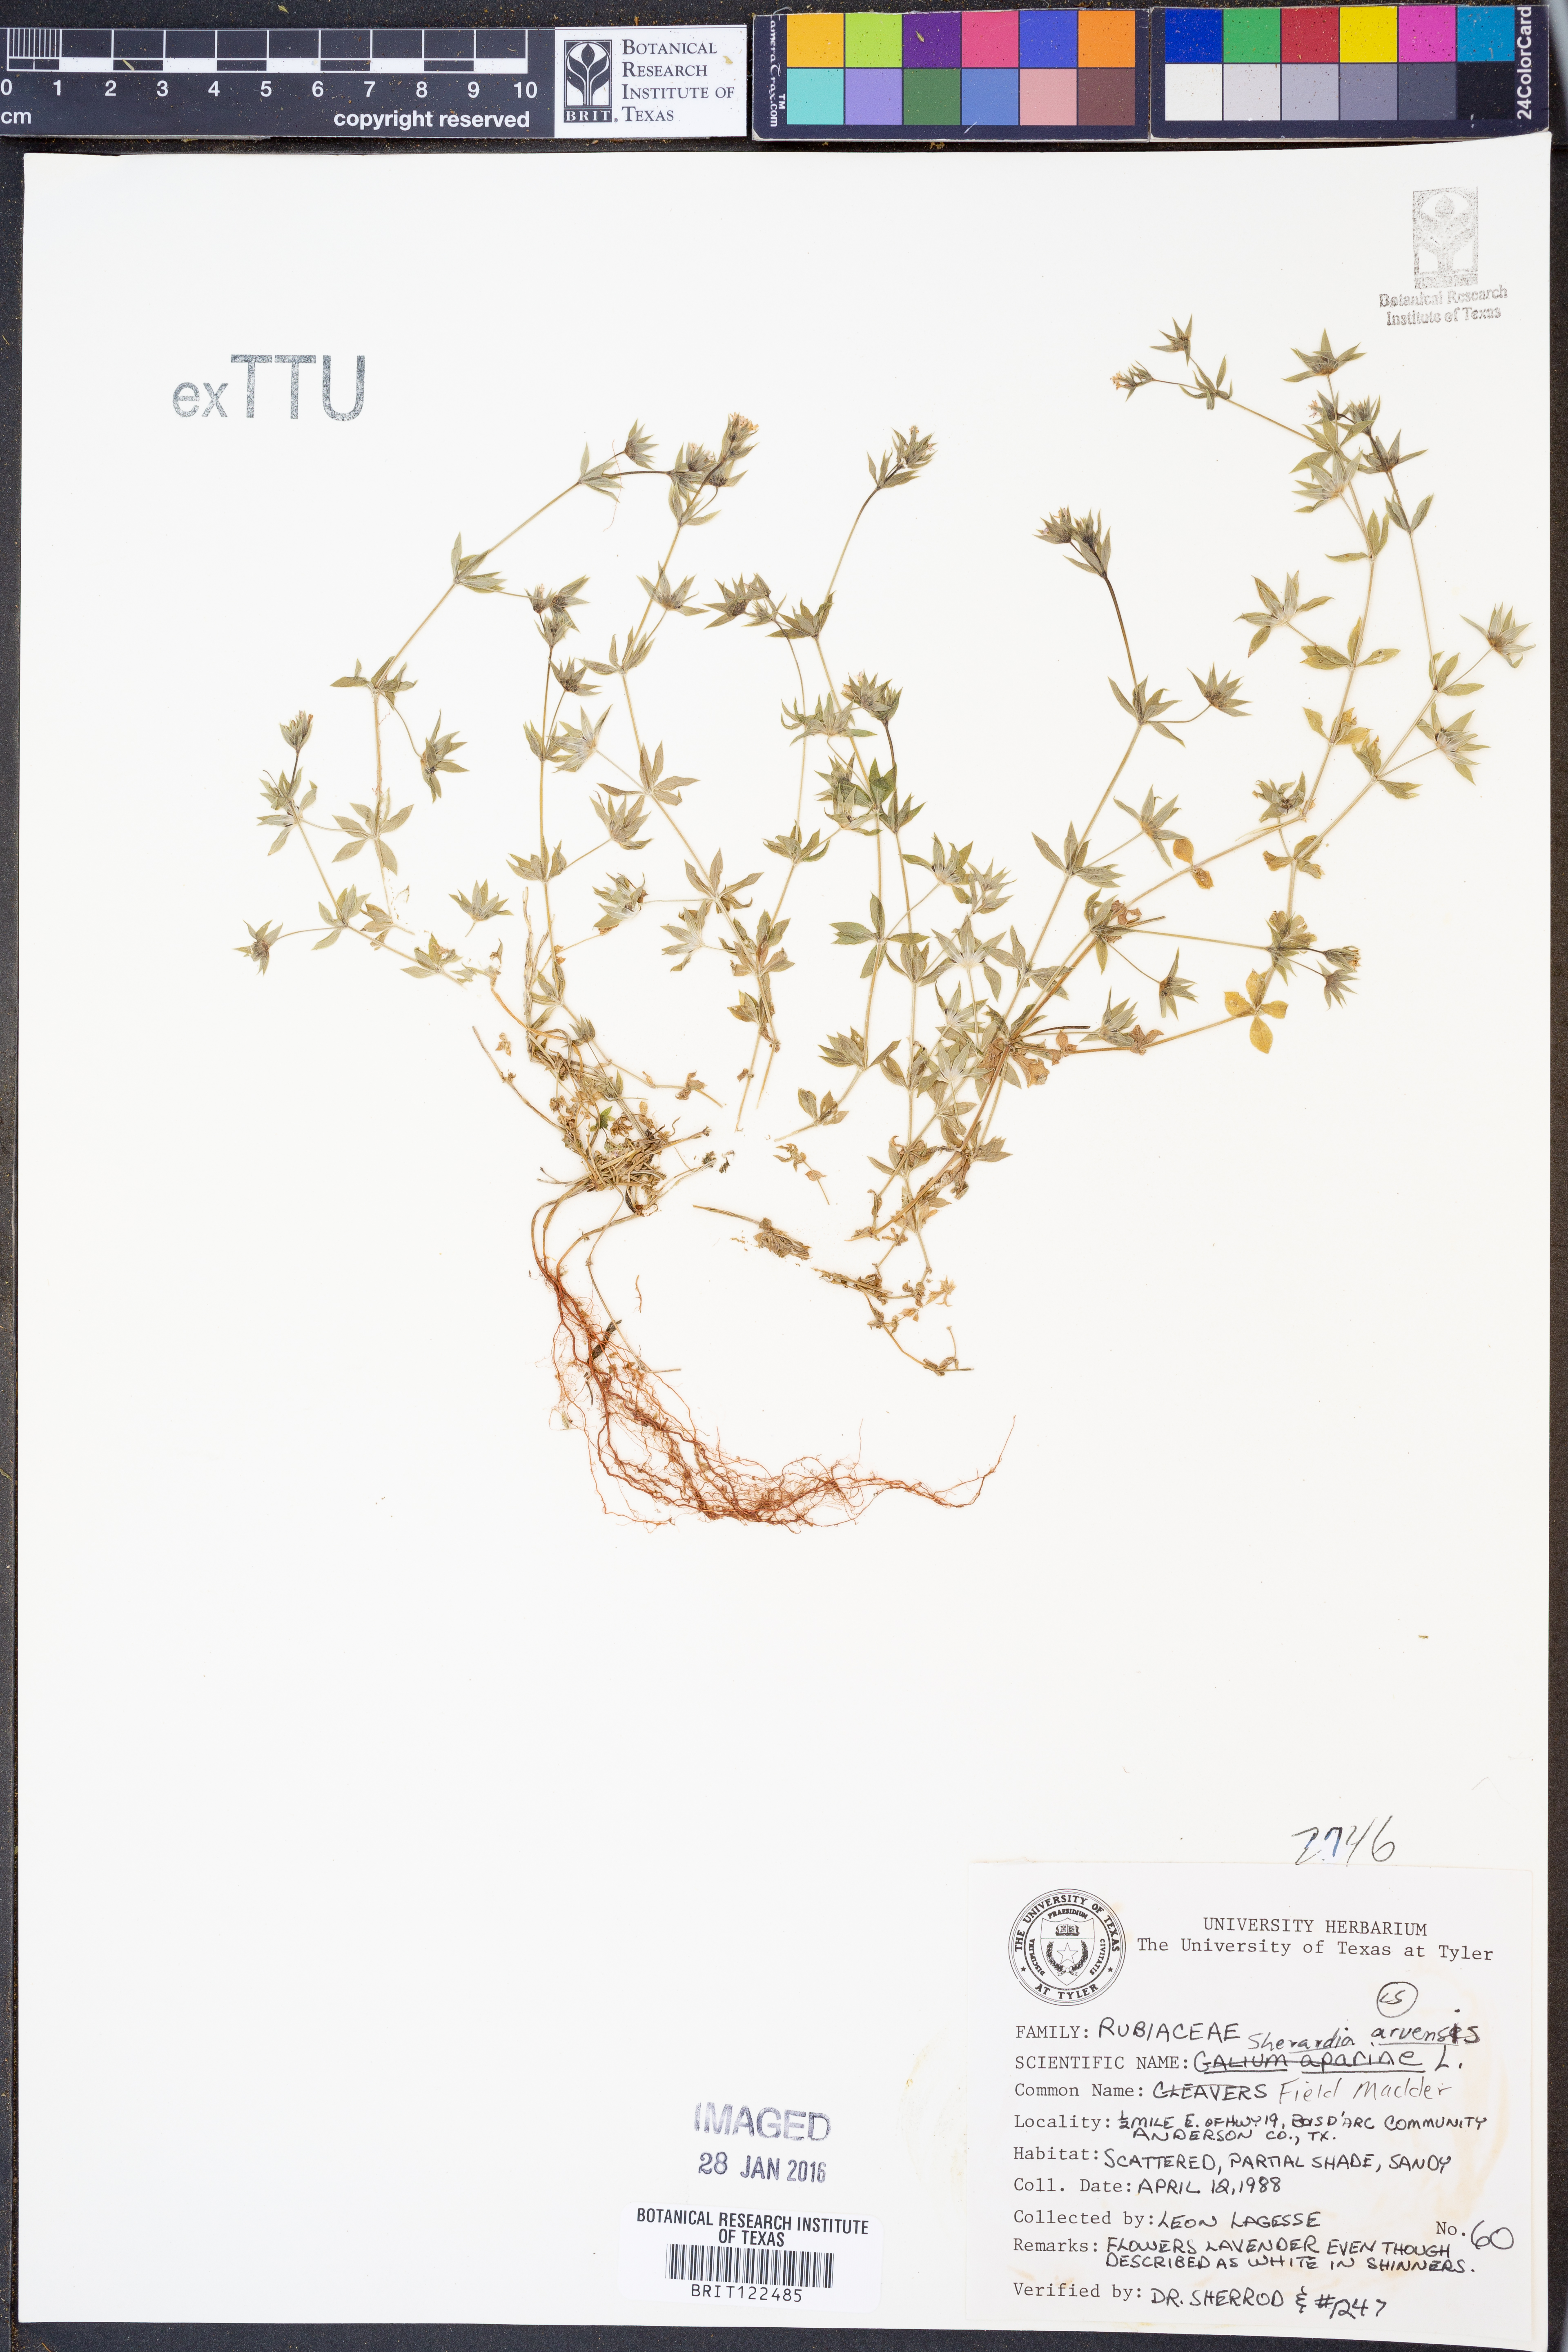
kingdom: Plantae
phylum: Tracheophyta
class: Magnoliopsida
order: Gentianales
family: Rubiaceae
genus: Sherardia
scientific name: Sherardia arvensis
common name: Field madder
